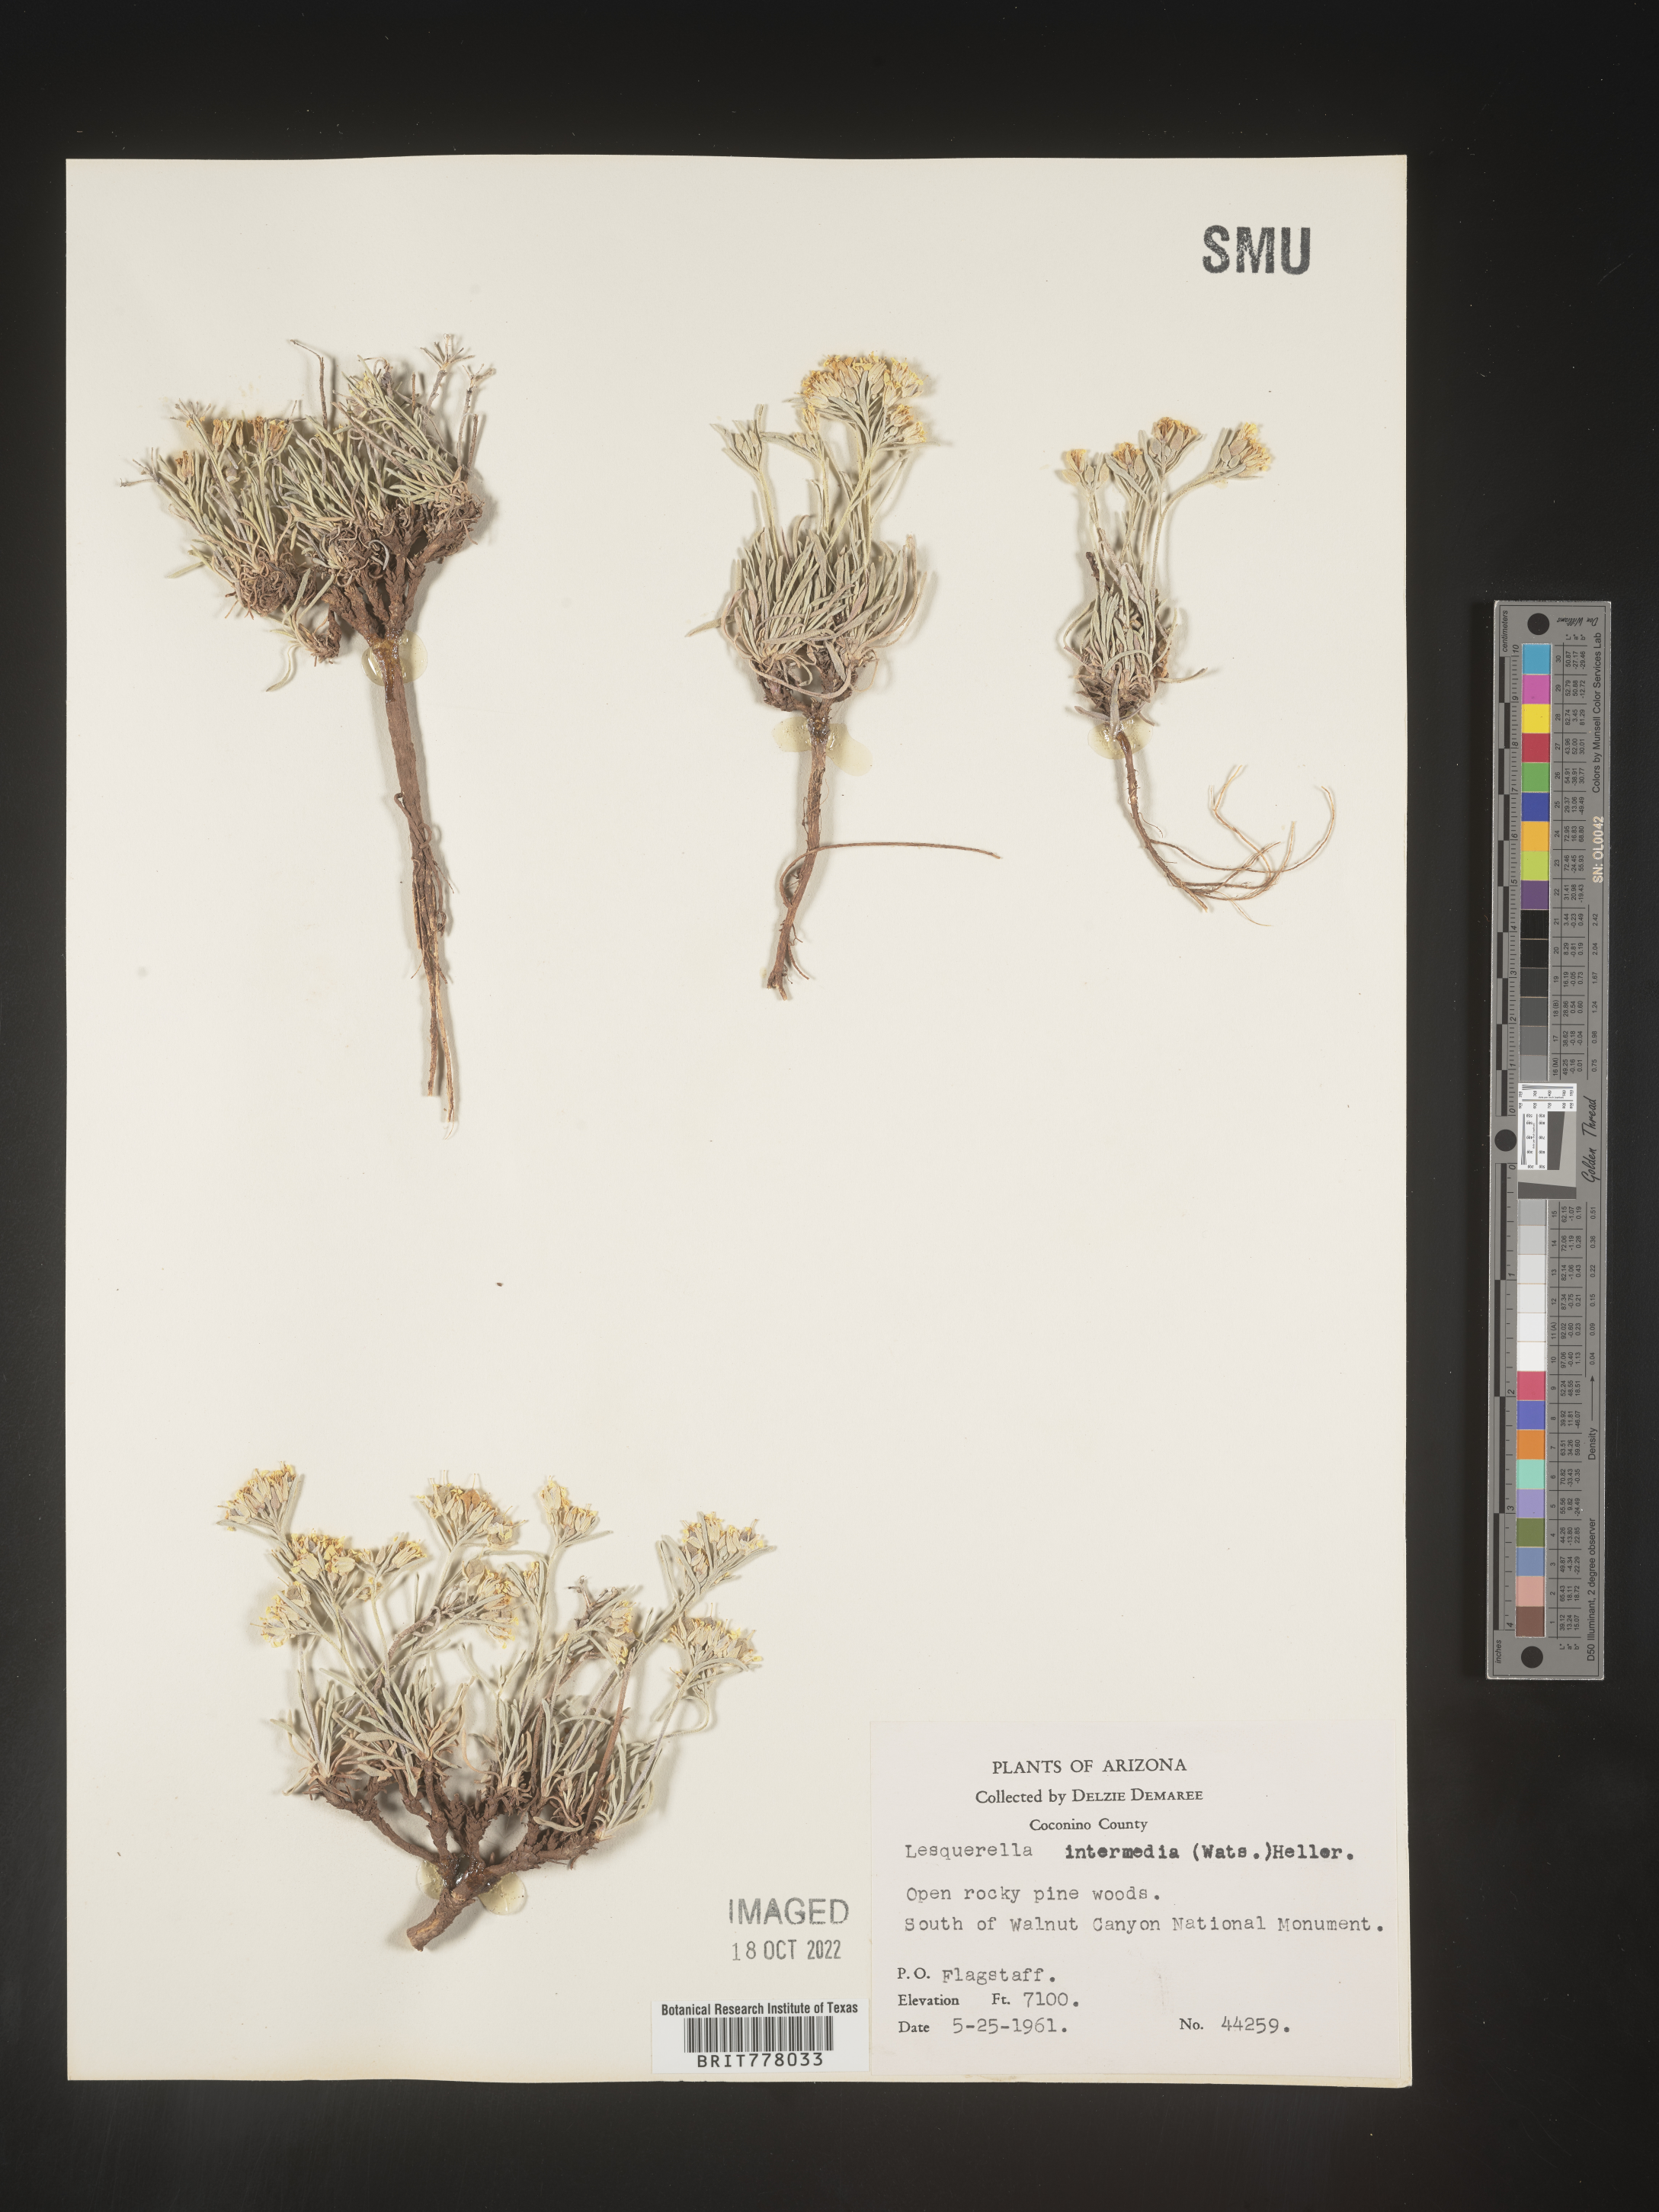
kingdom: Chromista
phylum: Cercozoa
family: Psammonobiotidae
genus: Lesquerella
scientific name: Lesquerella
